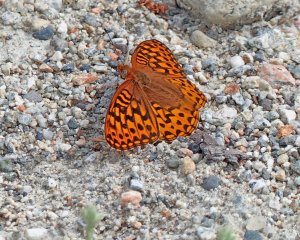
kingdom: Animalia
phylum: Arthropoda
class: Insecta
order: Lepidoptera
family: Nymphalidae
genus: Speyeria
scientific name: Speyeria zerene
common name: Zerene Fritillary
